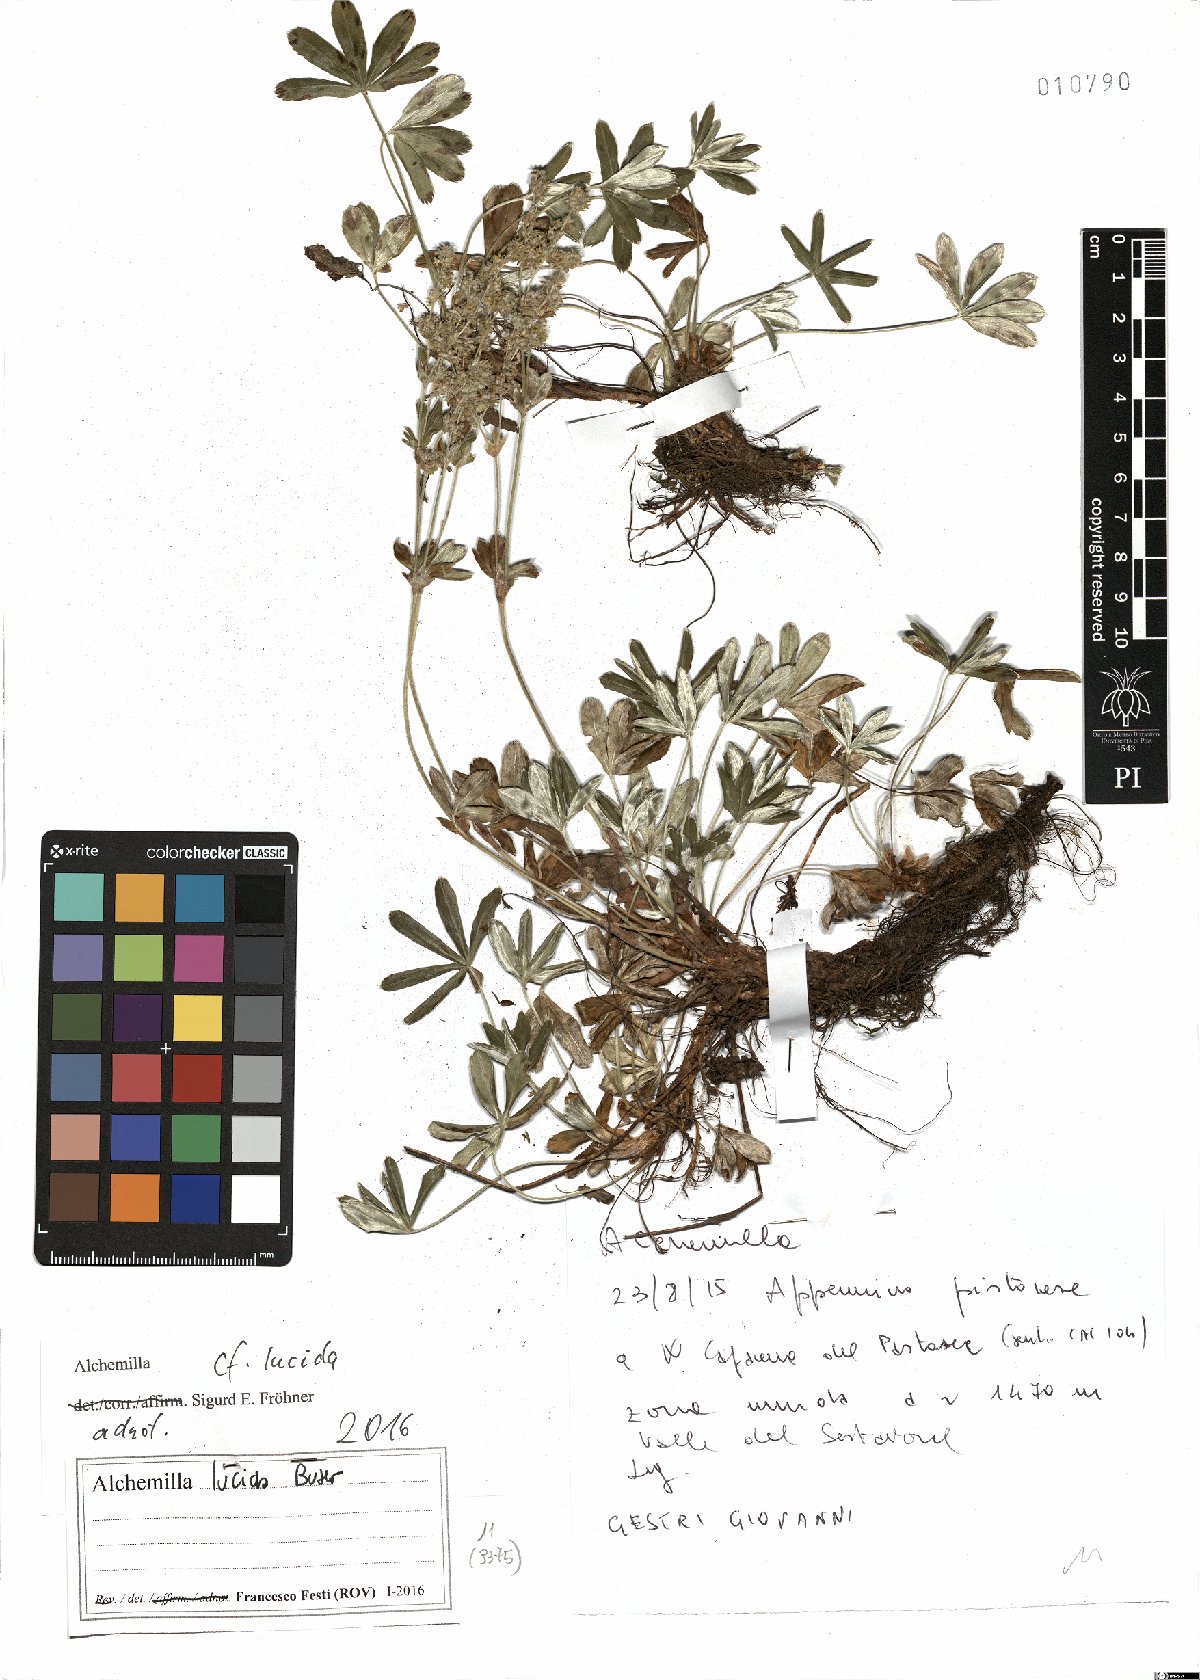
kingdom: Plantae
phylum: Tracheophyta
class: Magnoliopsida
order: Rosales
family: Rosaceae
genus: Alchemilla
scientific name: Alchemilla lucida
